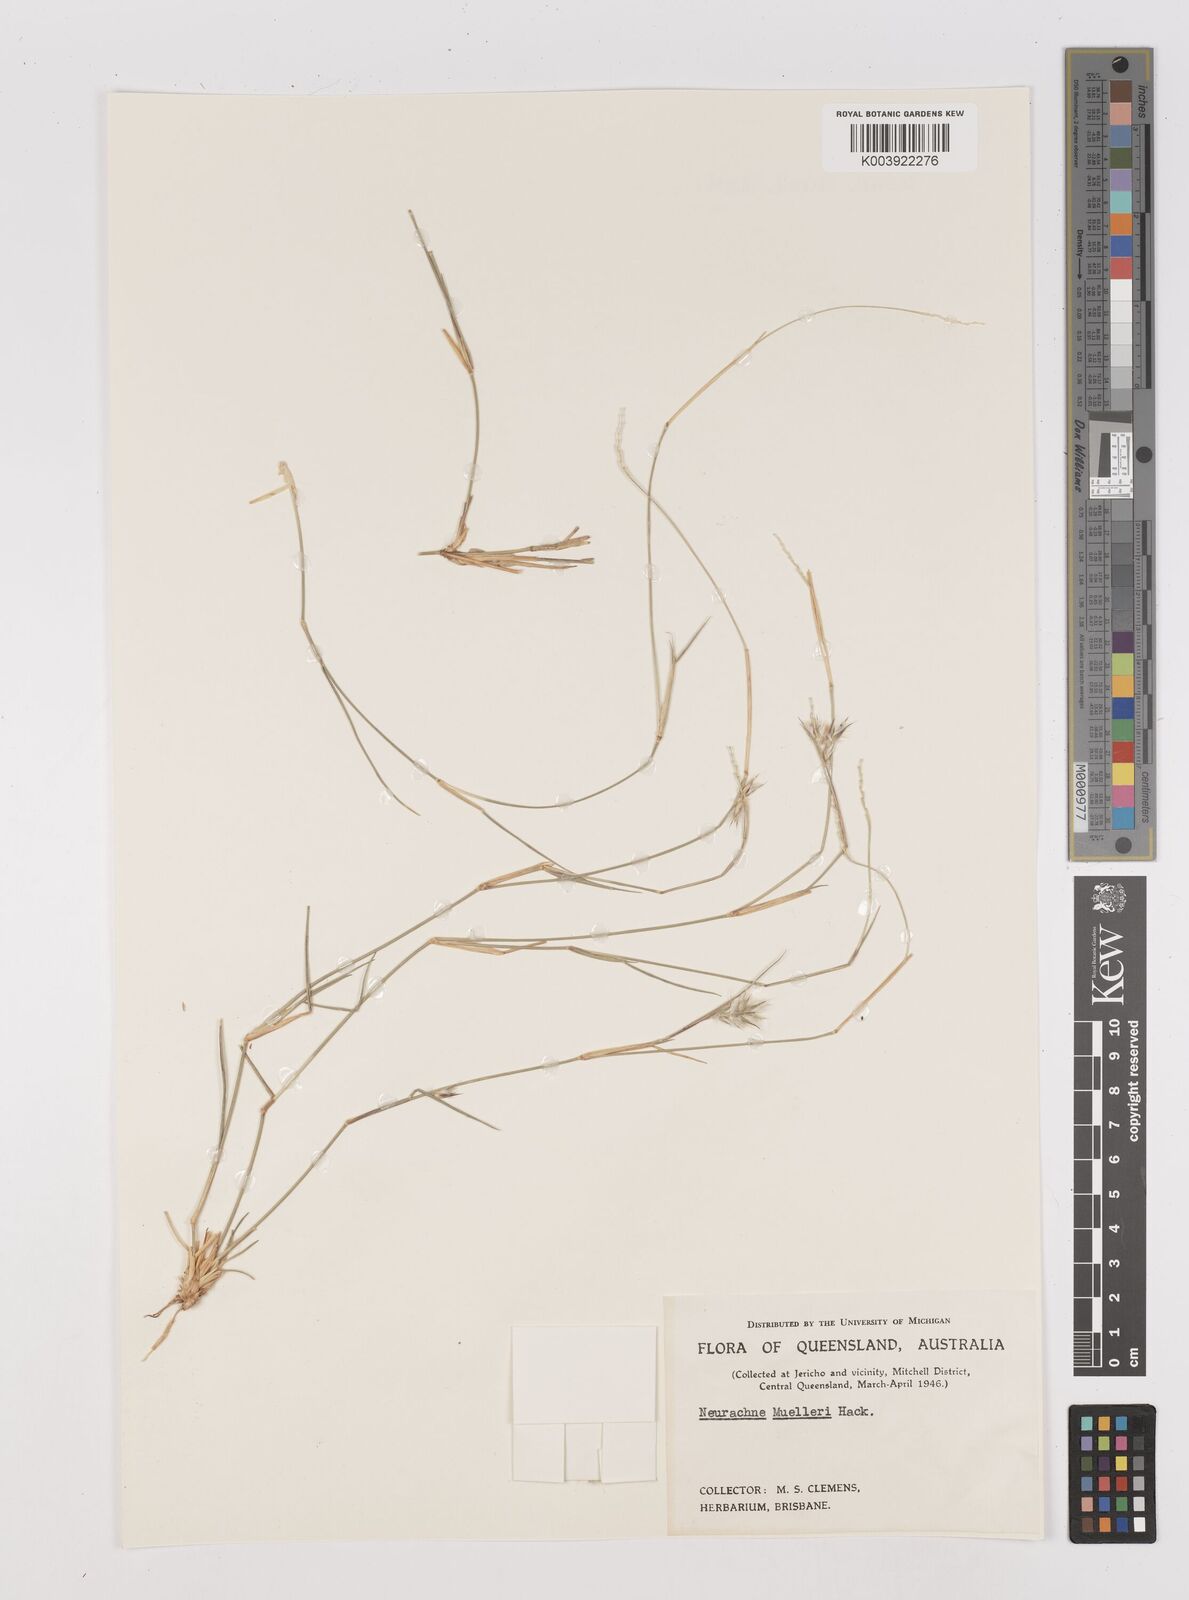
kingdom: Plantae
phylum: Tracheophyta
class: Liliopsida
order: Poales
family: Poaceae
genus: Neurachne
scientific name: Neurachne muelleri
